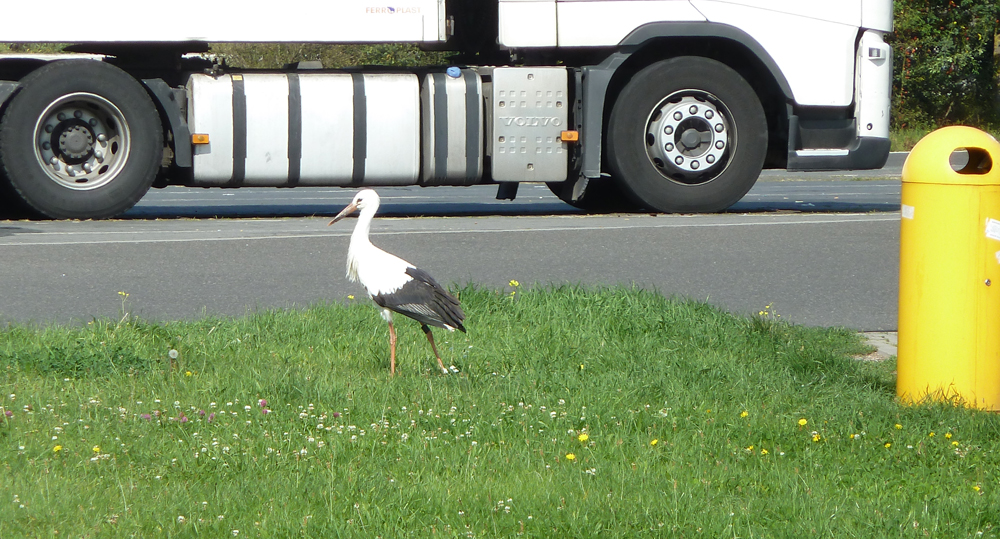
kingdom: Animalia
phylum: Chordata
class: Aves
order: Ciconiiformes
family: Ciconiidae
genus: Ciconia
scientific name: Ciconia ciconia
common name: White stork
